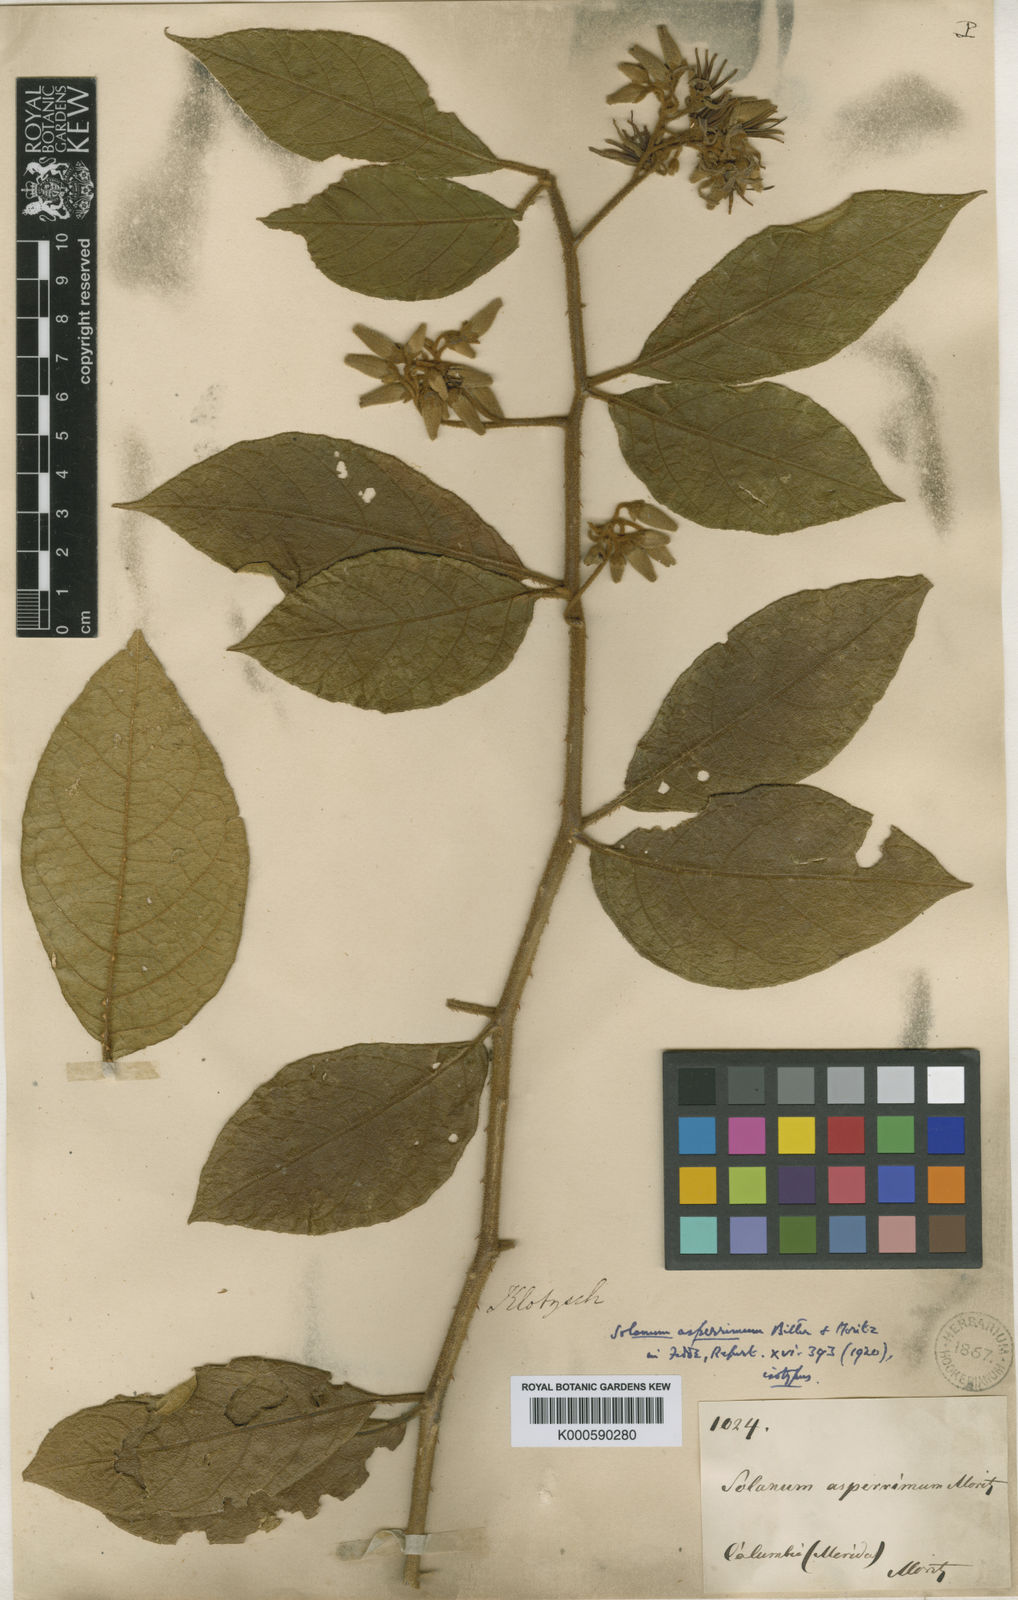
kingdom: Plantae
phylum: Tracheophyta
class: Magnoliopsida
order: Solanales
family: Solanaceae
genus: Solanum
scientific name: Solanum aturense
